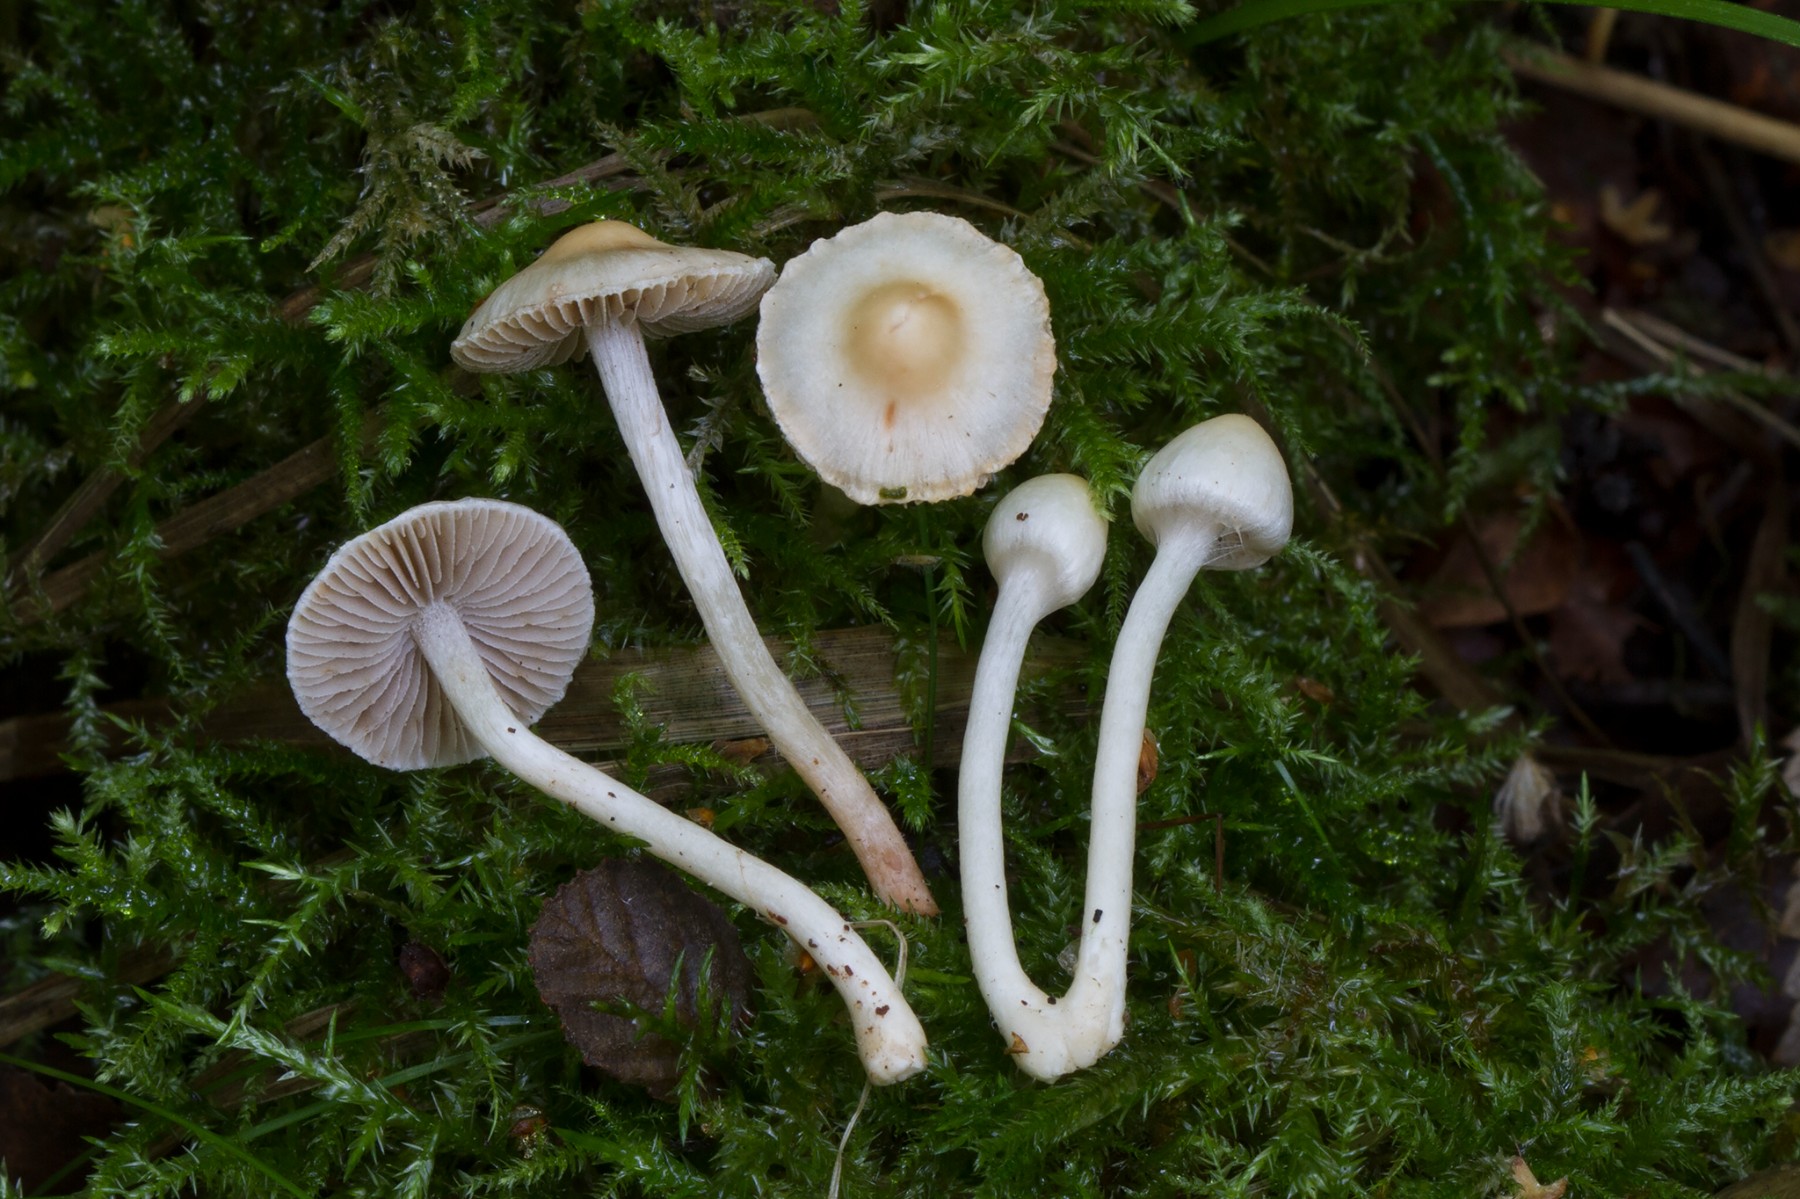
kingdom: Fungi
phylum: Basidiomycota
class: Agaricomycetes
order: Agaricales
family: Inocybaceae
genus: Inocybe
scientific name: Inocybe
